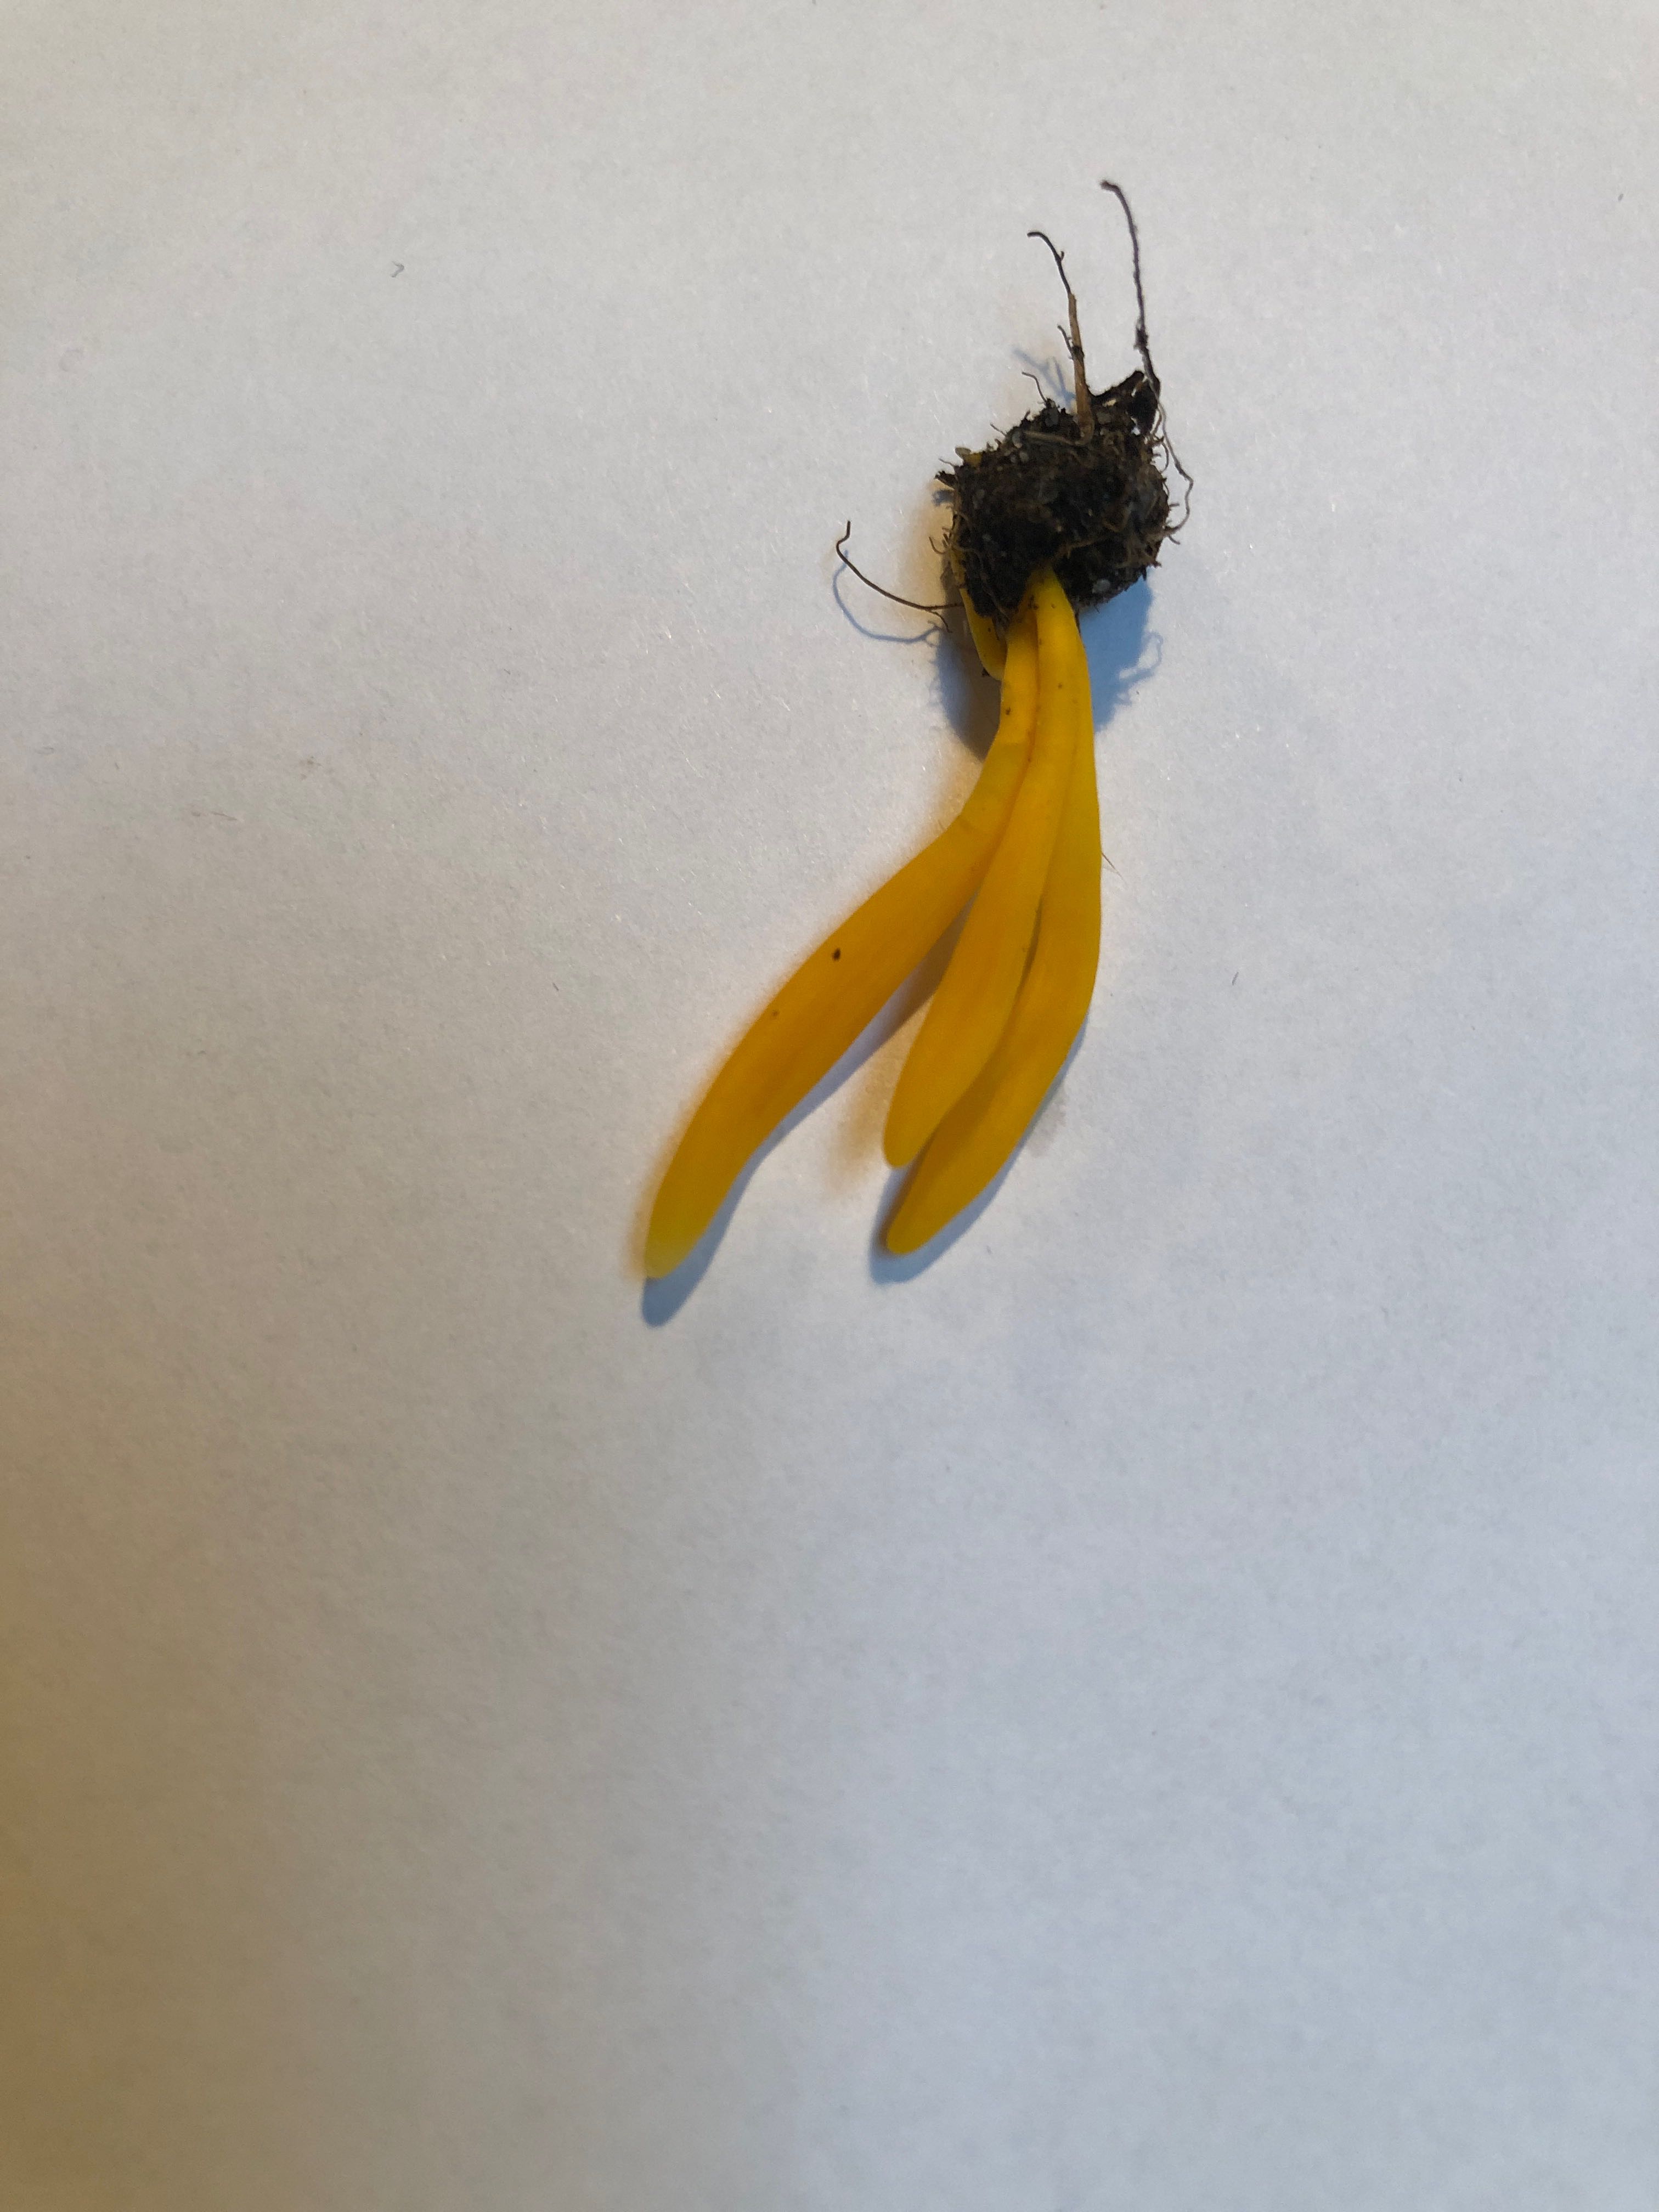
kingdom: Fungi
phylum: Basidiomycota
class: Agaricomycetes
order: Agaricales
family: Clavariaceae
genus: Clavulinopsis
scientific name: Clavulinopsis
